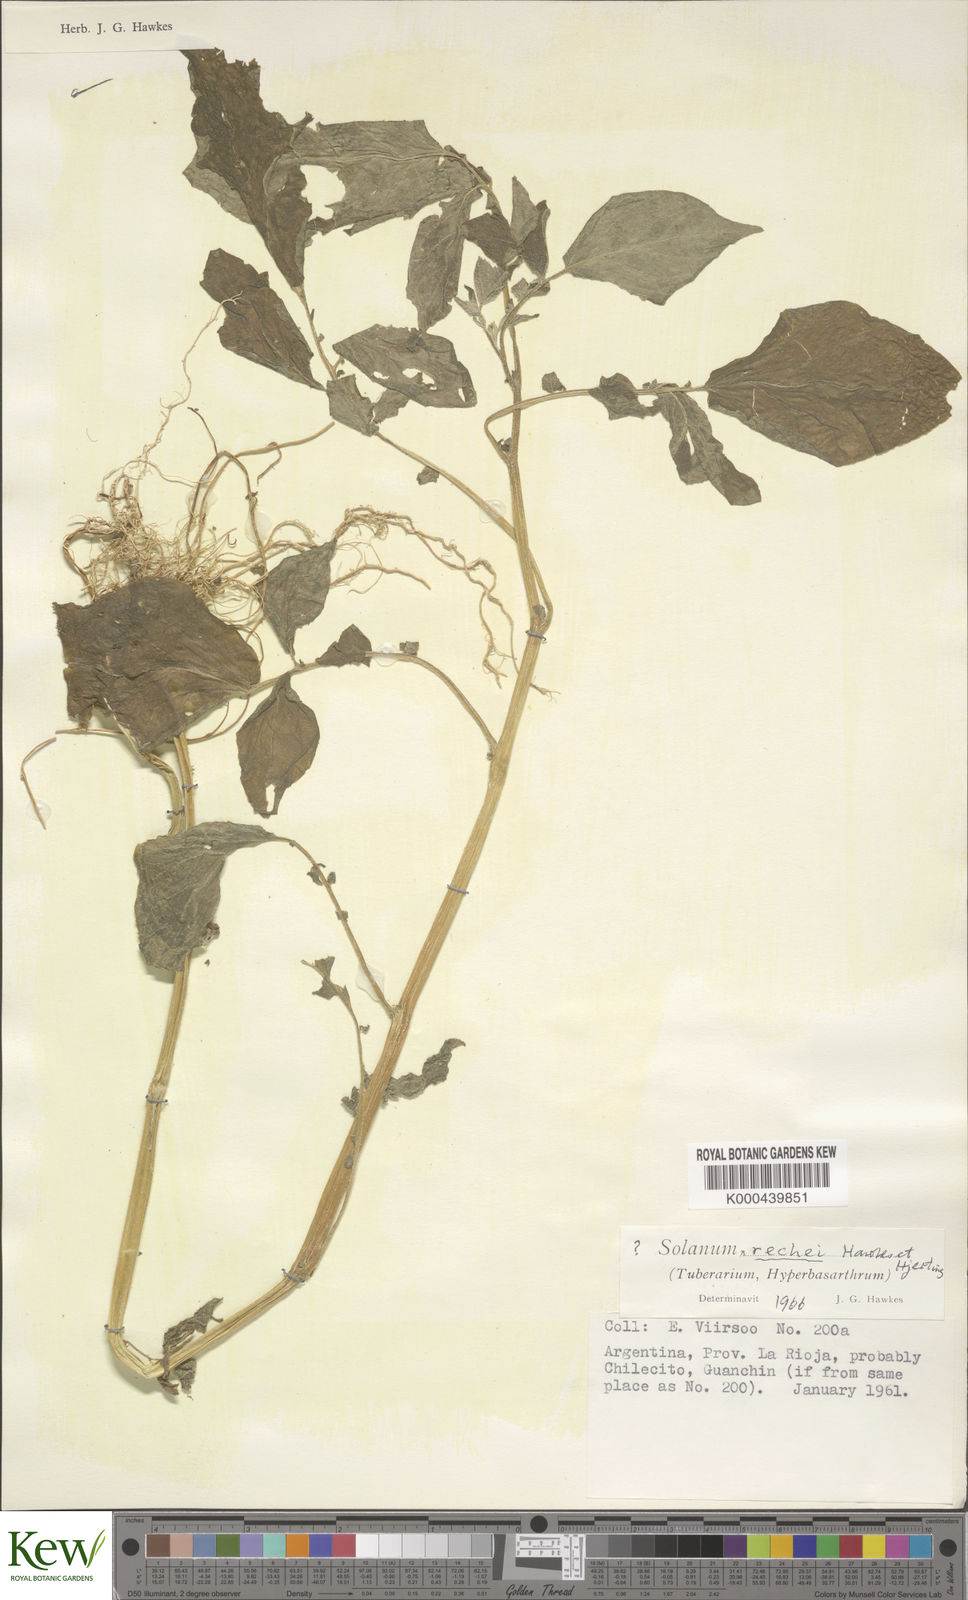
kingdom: Plantae
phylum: Tracheophyta
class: Magnoliopsida
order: Solanales
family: Solanaceae
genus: Solanum
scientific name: Solanum microdontum
